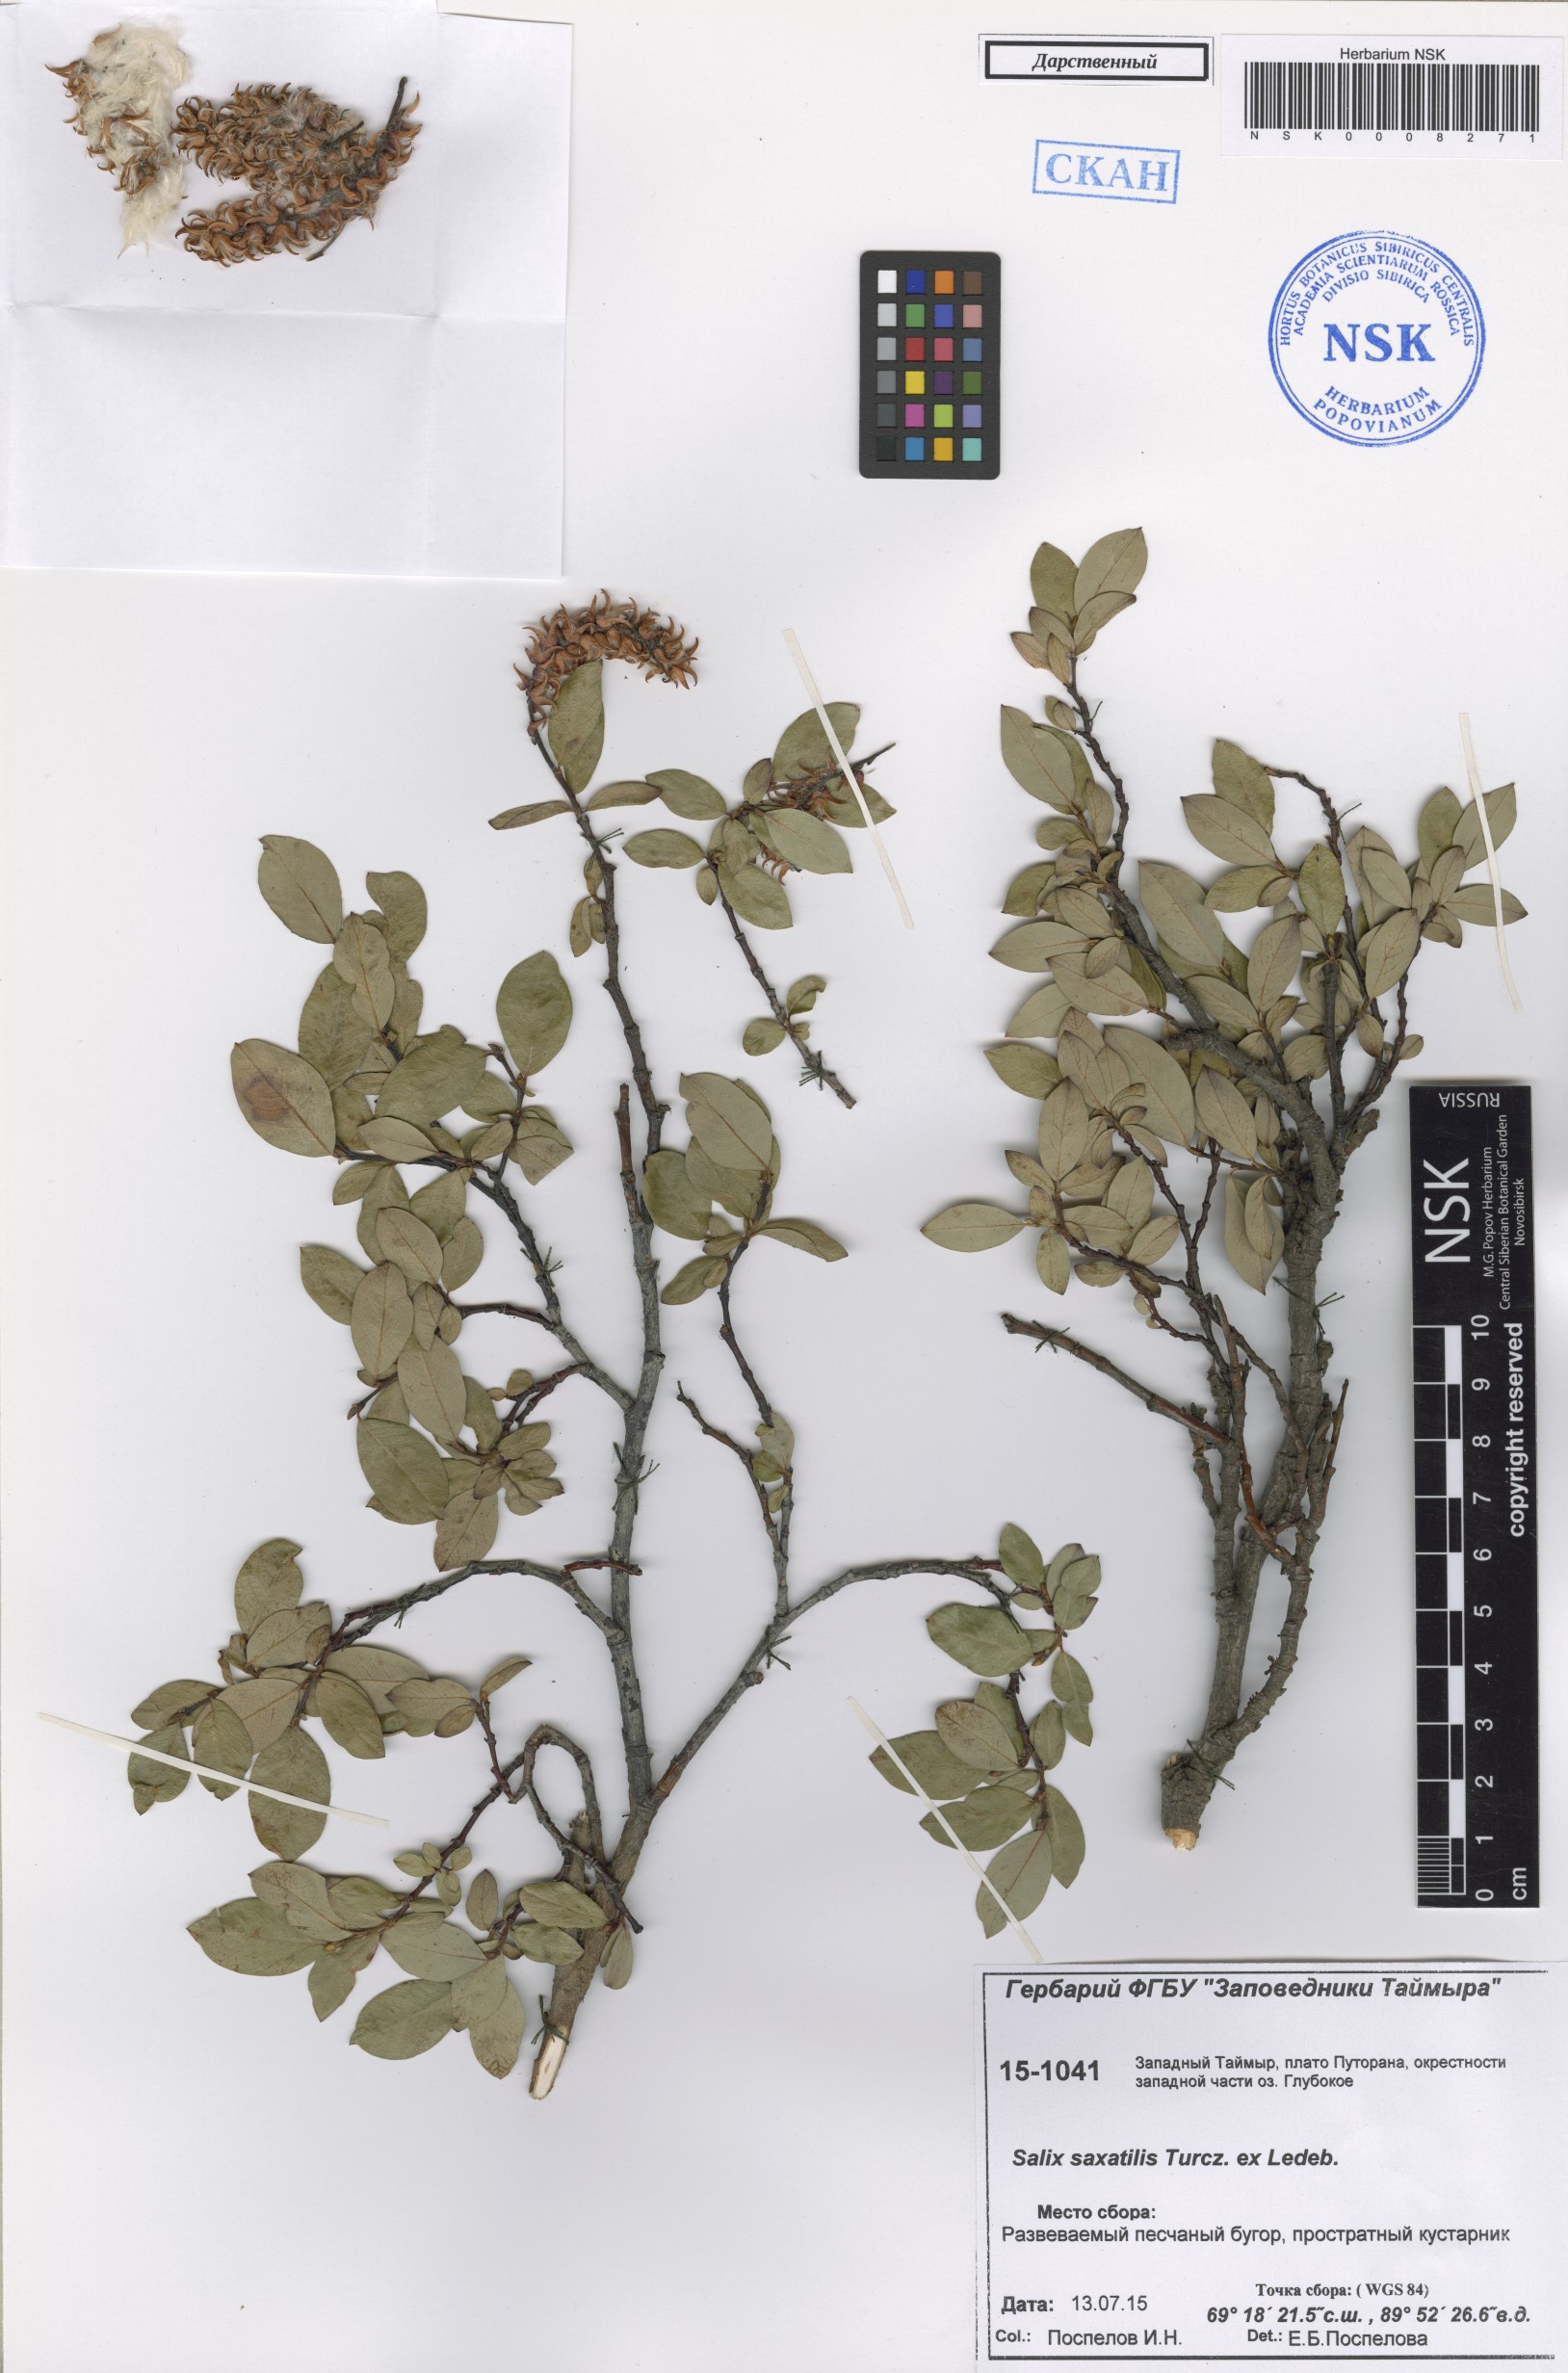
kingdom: Plantae
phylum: Tracheophyta
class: Magnoliopsida
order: Malpighiales
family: Salicaceae
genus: Salix
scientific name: Salix saxatilis
